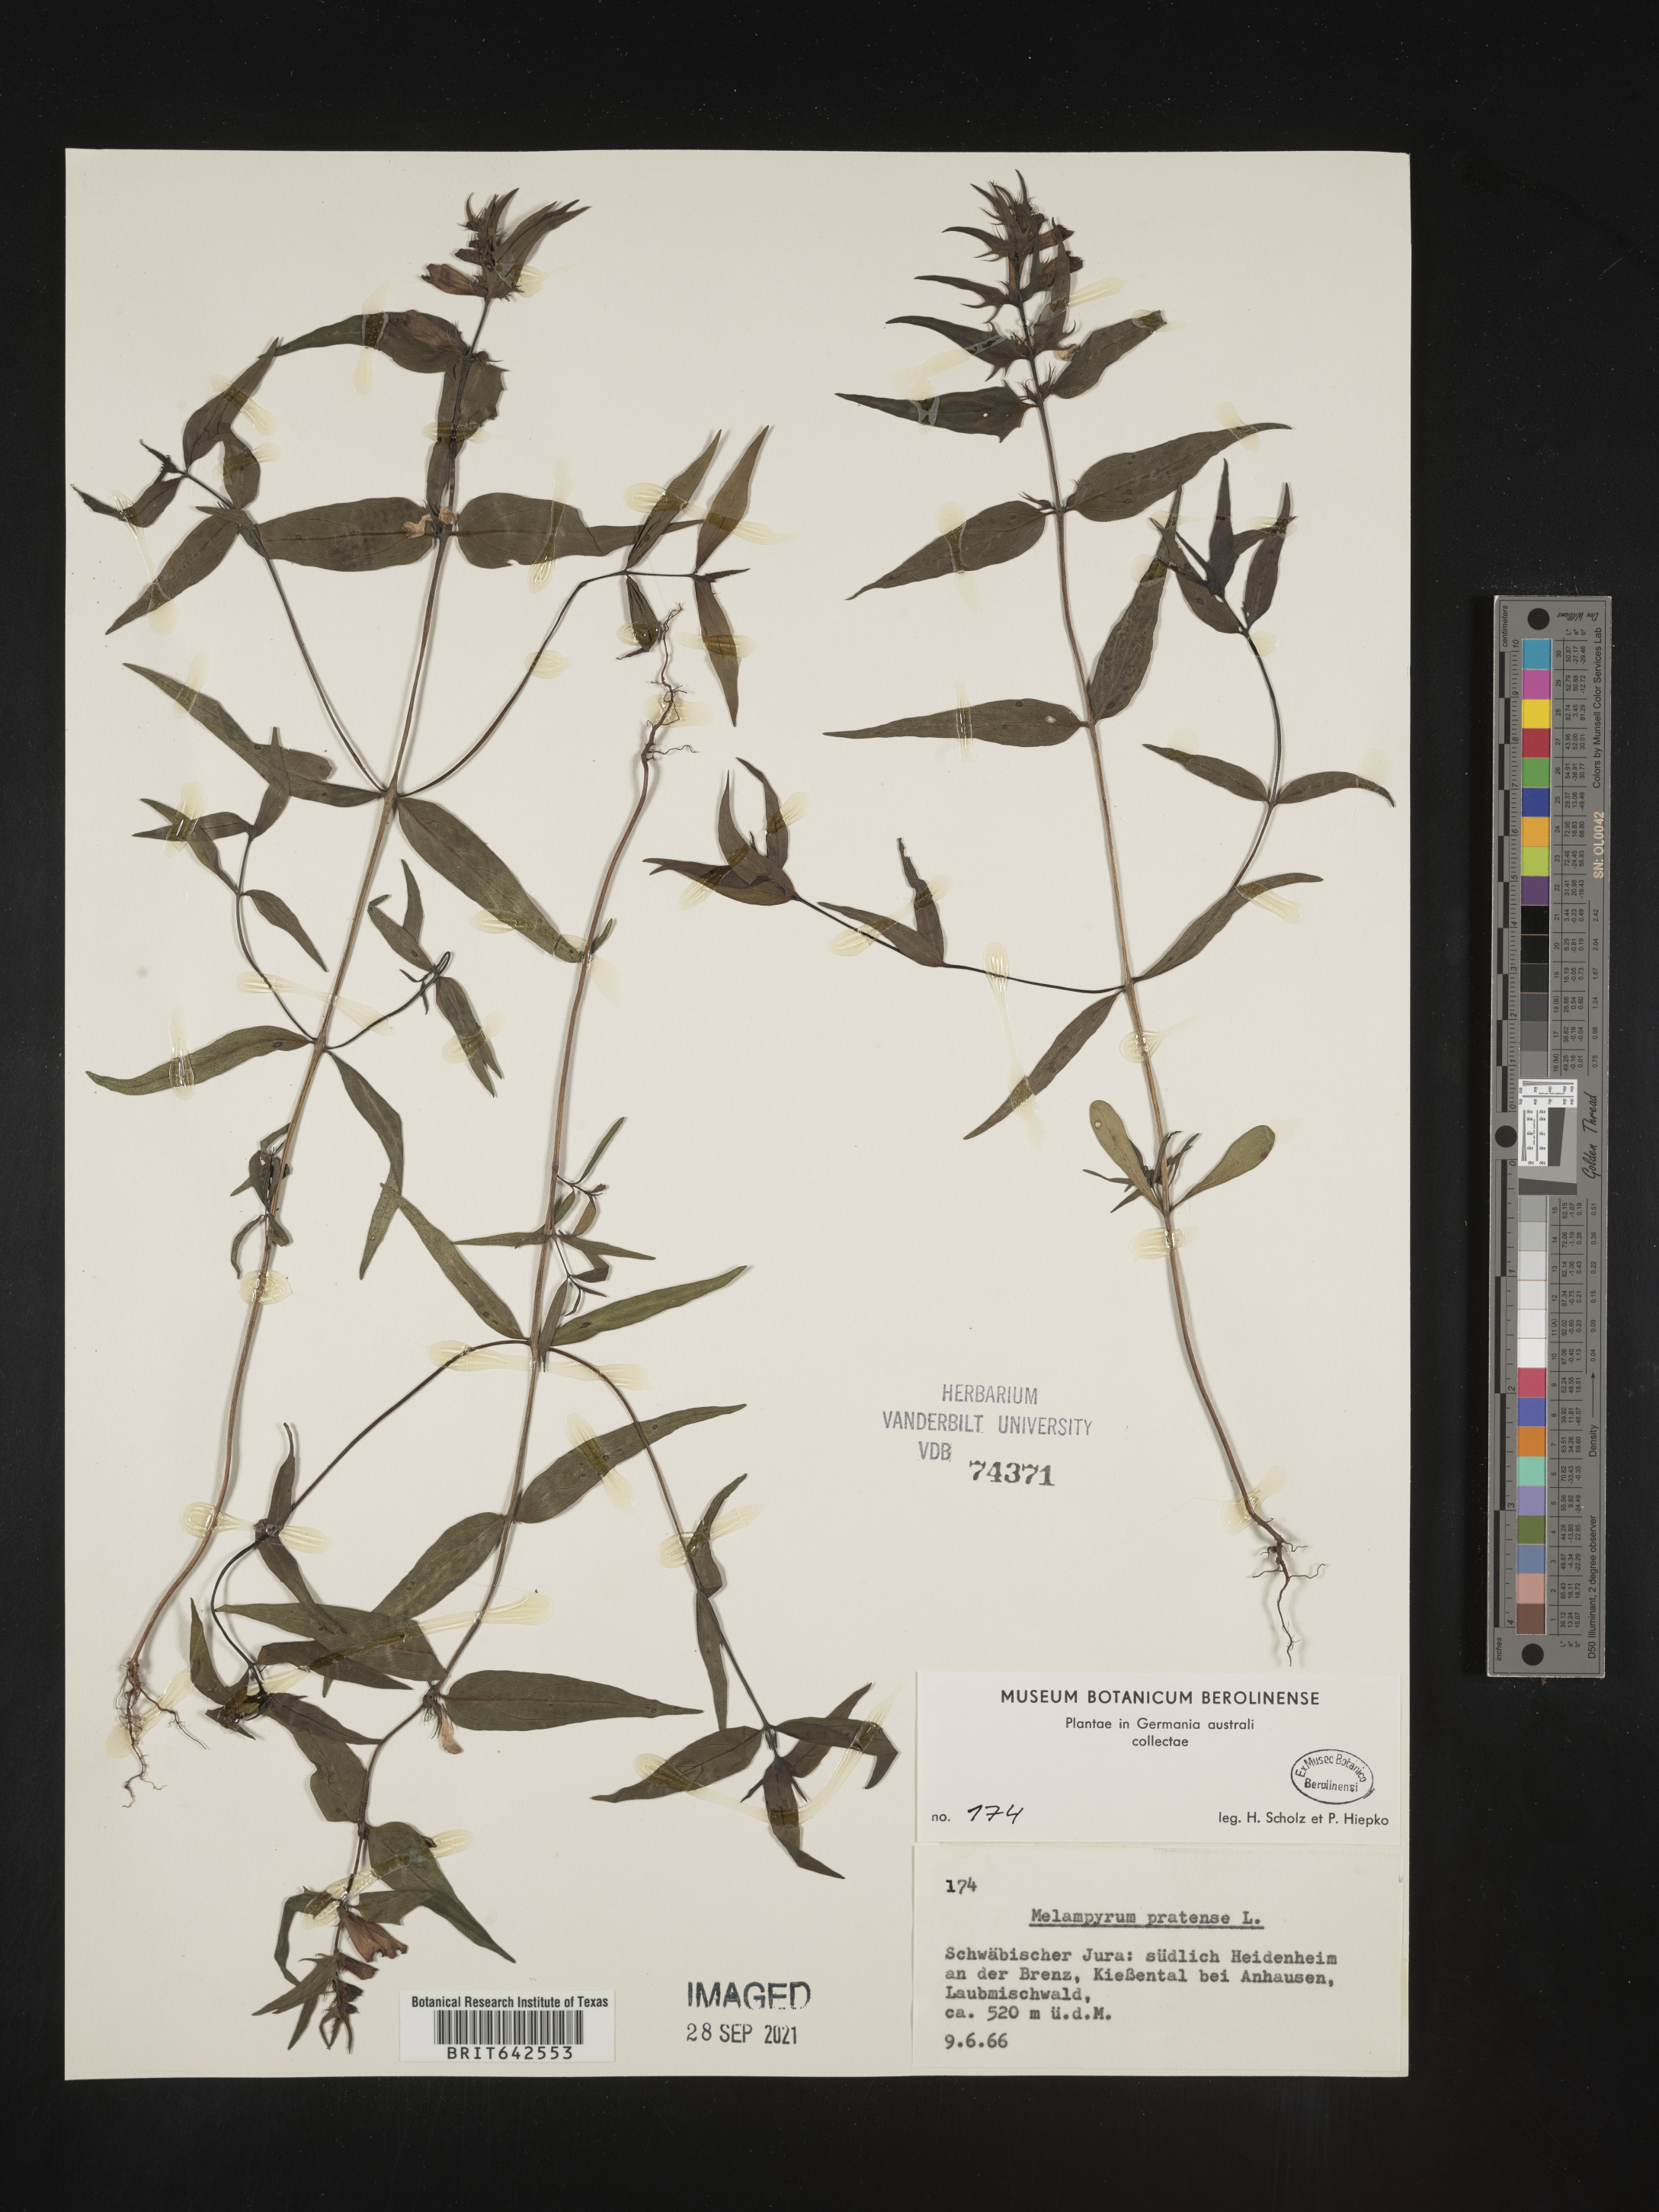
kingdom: Plantae
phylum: Tracheophyta
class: Magnoliopsida
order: Lamiales
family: Orobanchaceae
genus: Melampyrum
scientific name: Melampyrum
